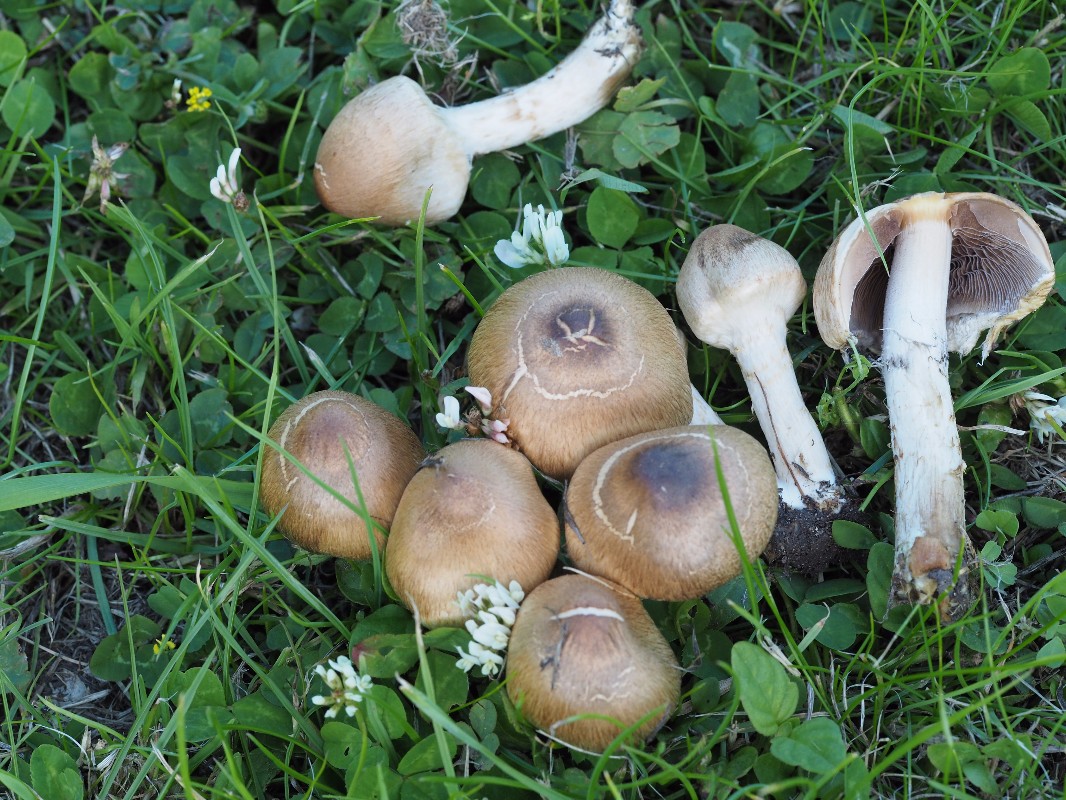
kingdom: Fungi
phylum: Basidiomycota
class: Agaricomycetes
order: Agaricales
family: Psathyrellaceae
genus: Lacrymaria
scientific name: Lacrymaria lacrymabunda
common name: grædende mørkhat
